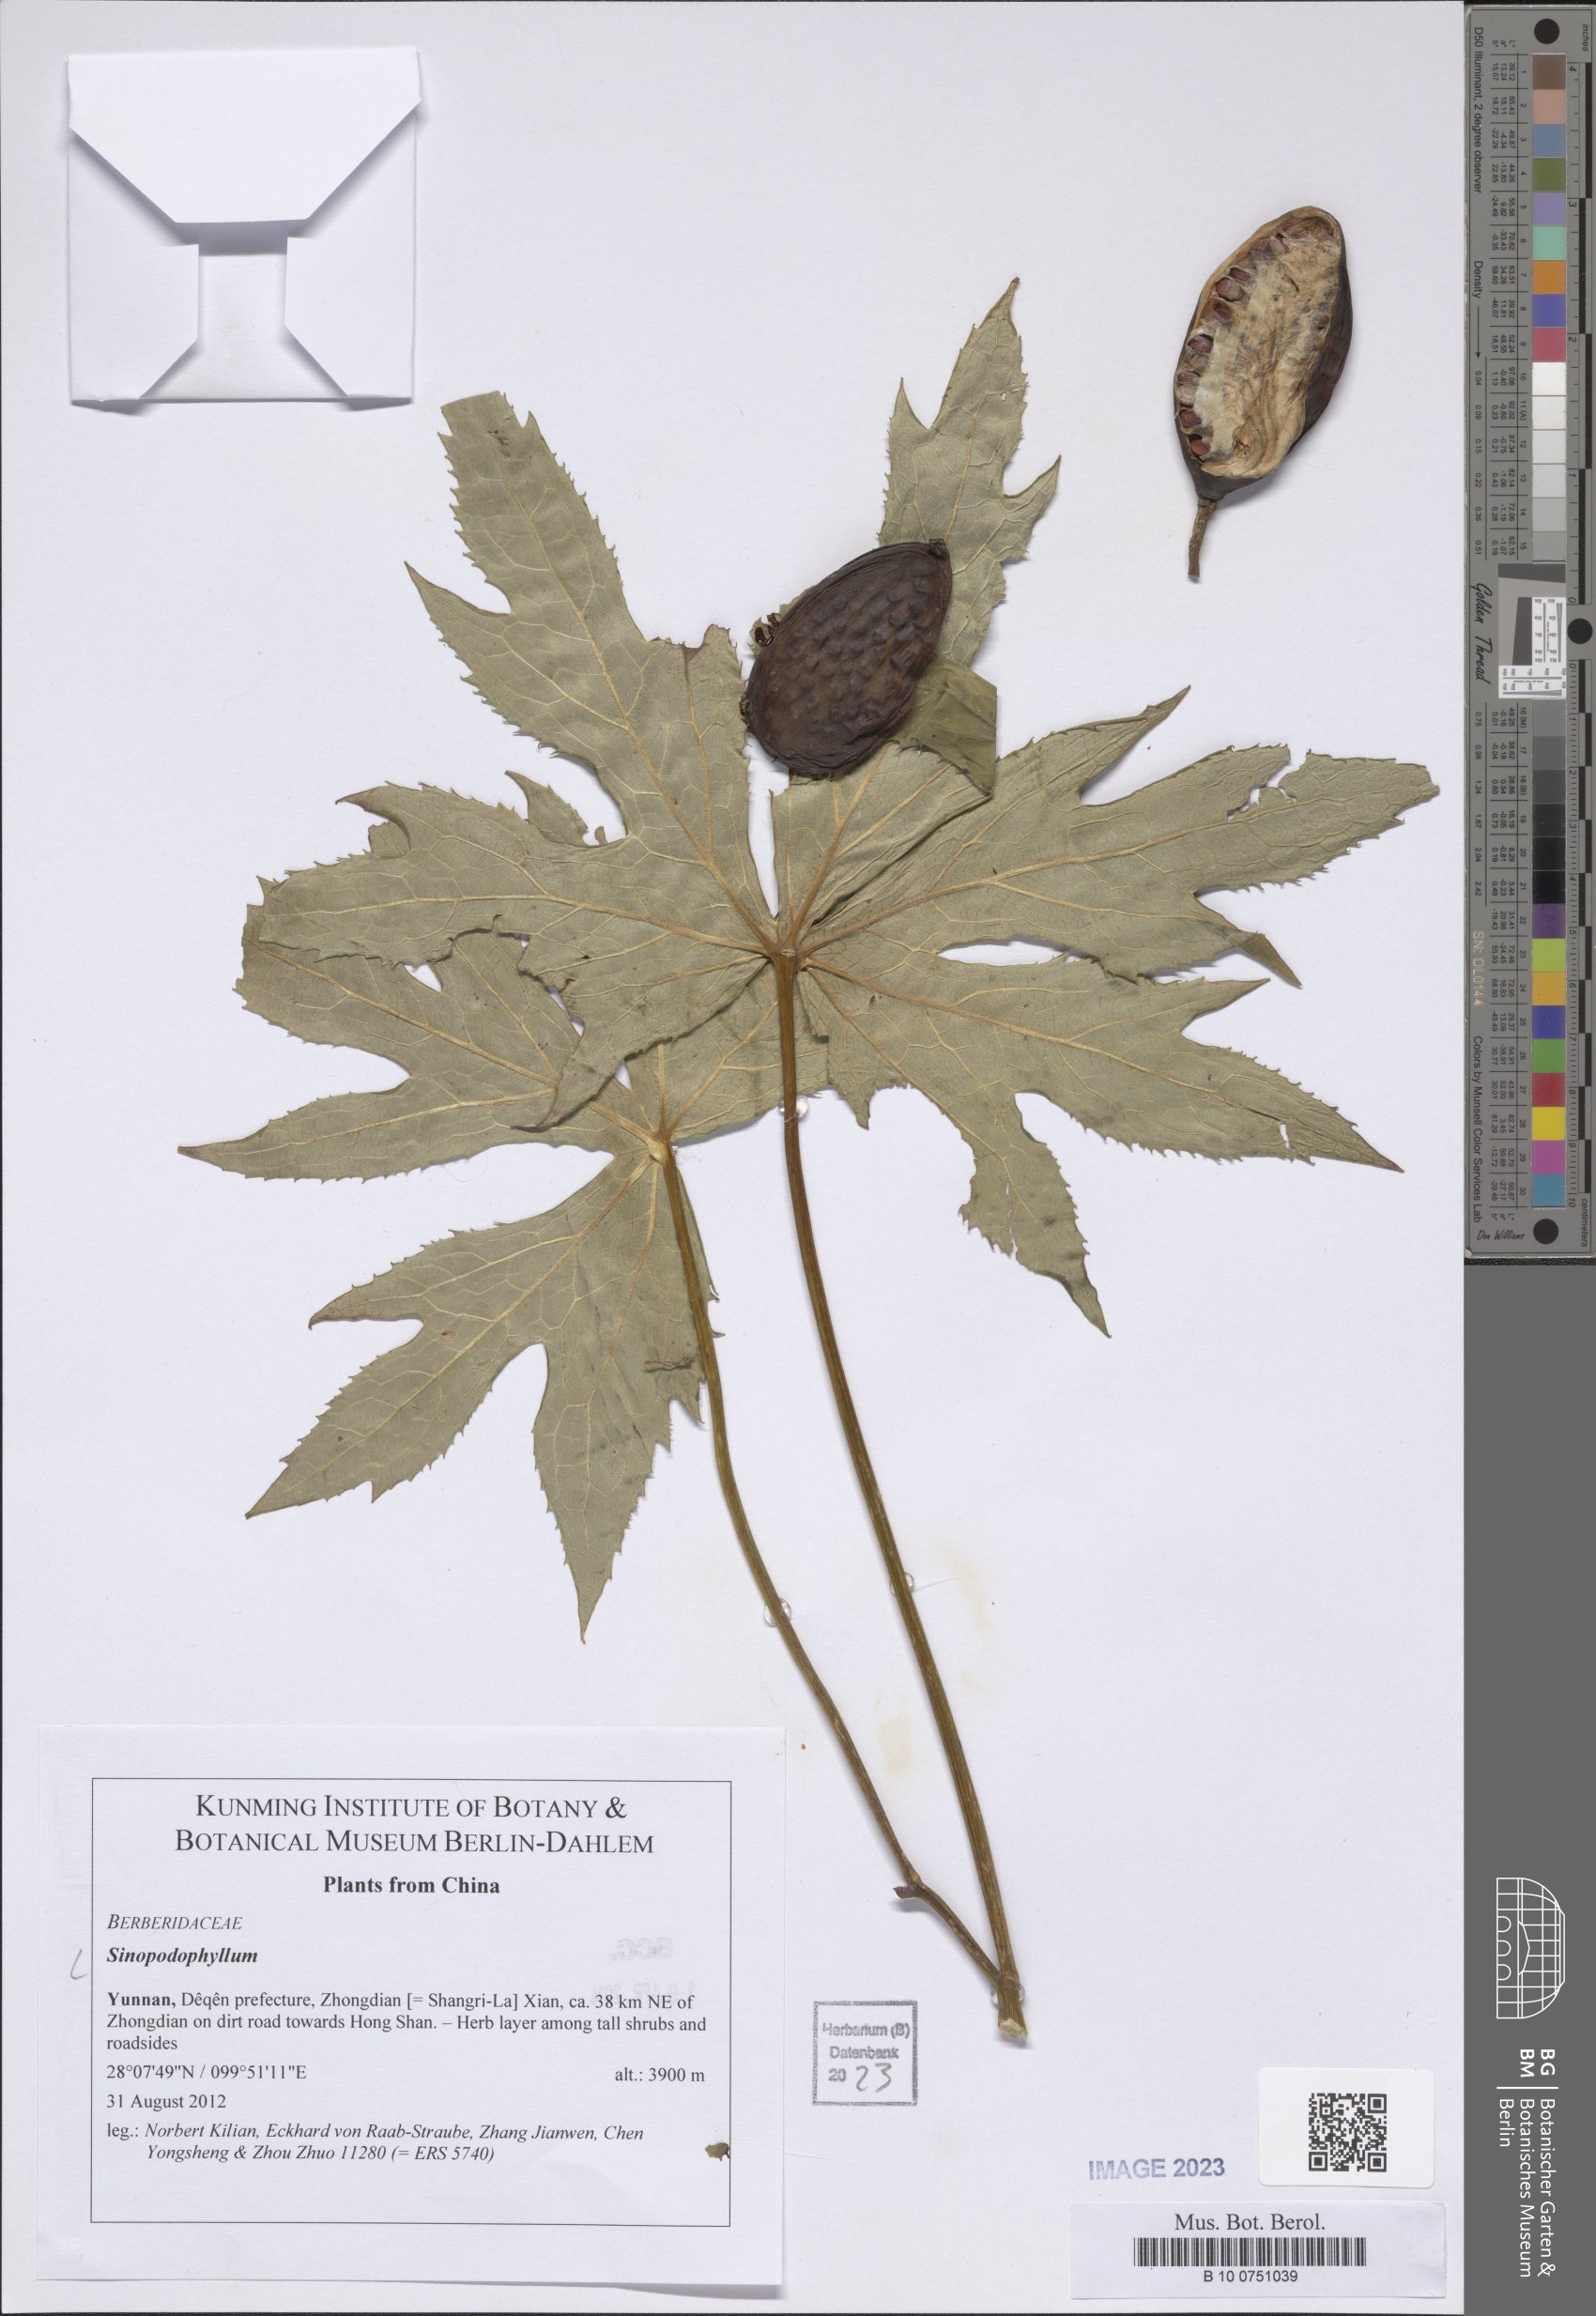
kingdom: Plantae
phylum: Tracheophyta
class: Magnoliopsida
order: Ranunculales
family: Berberidaceae
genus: Sinopodophyllum
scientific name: Sinopodophyllum
